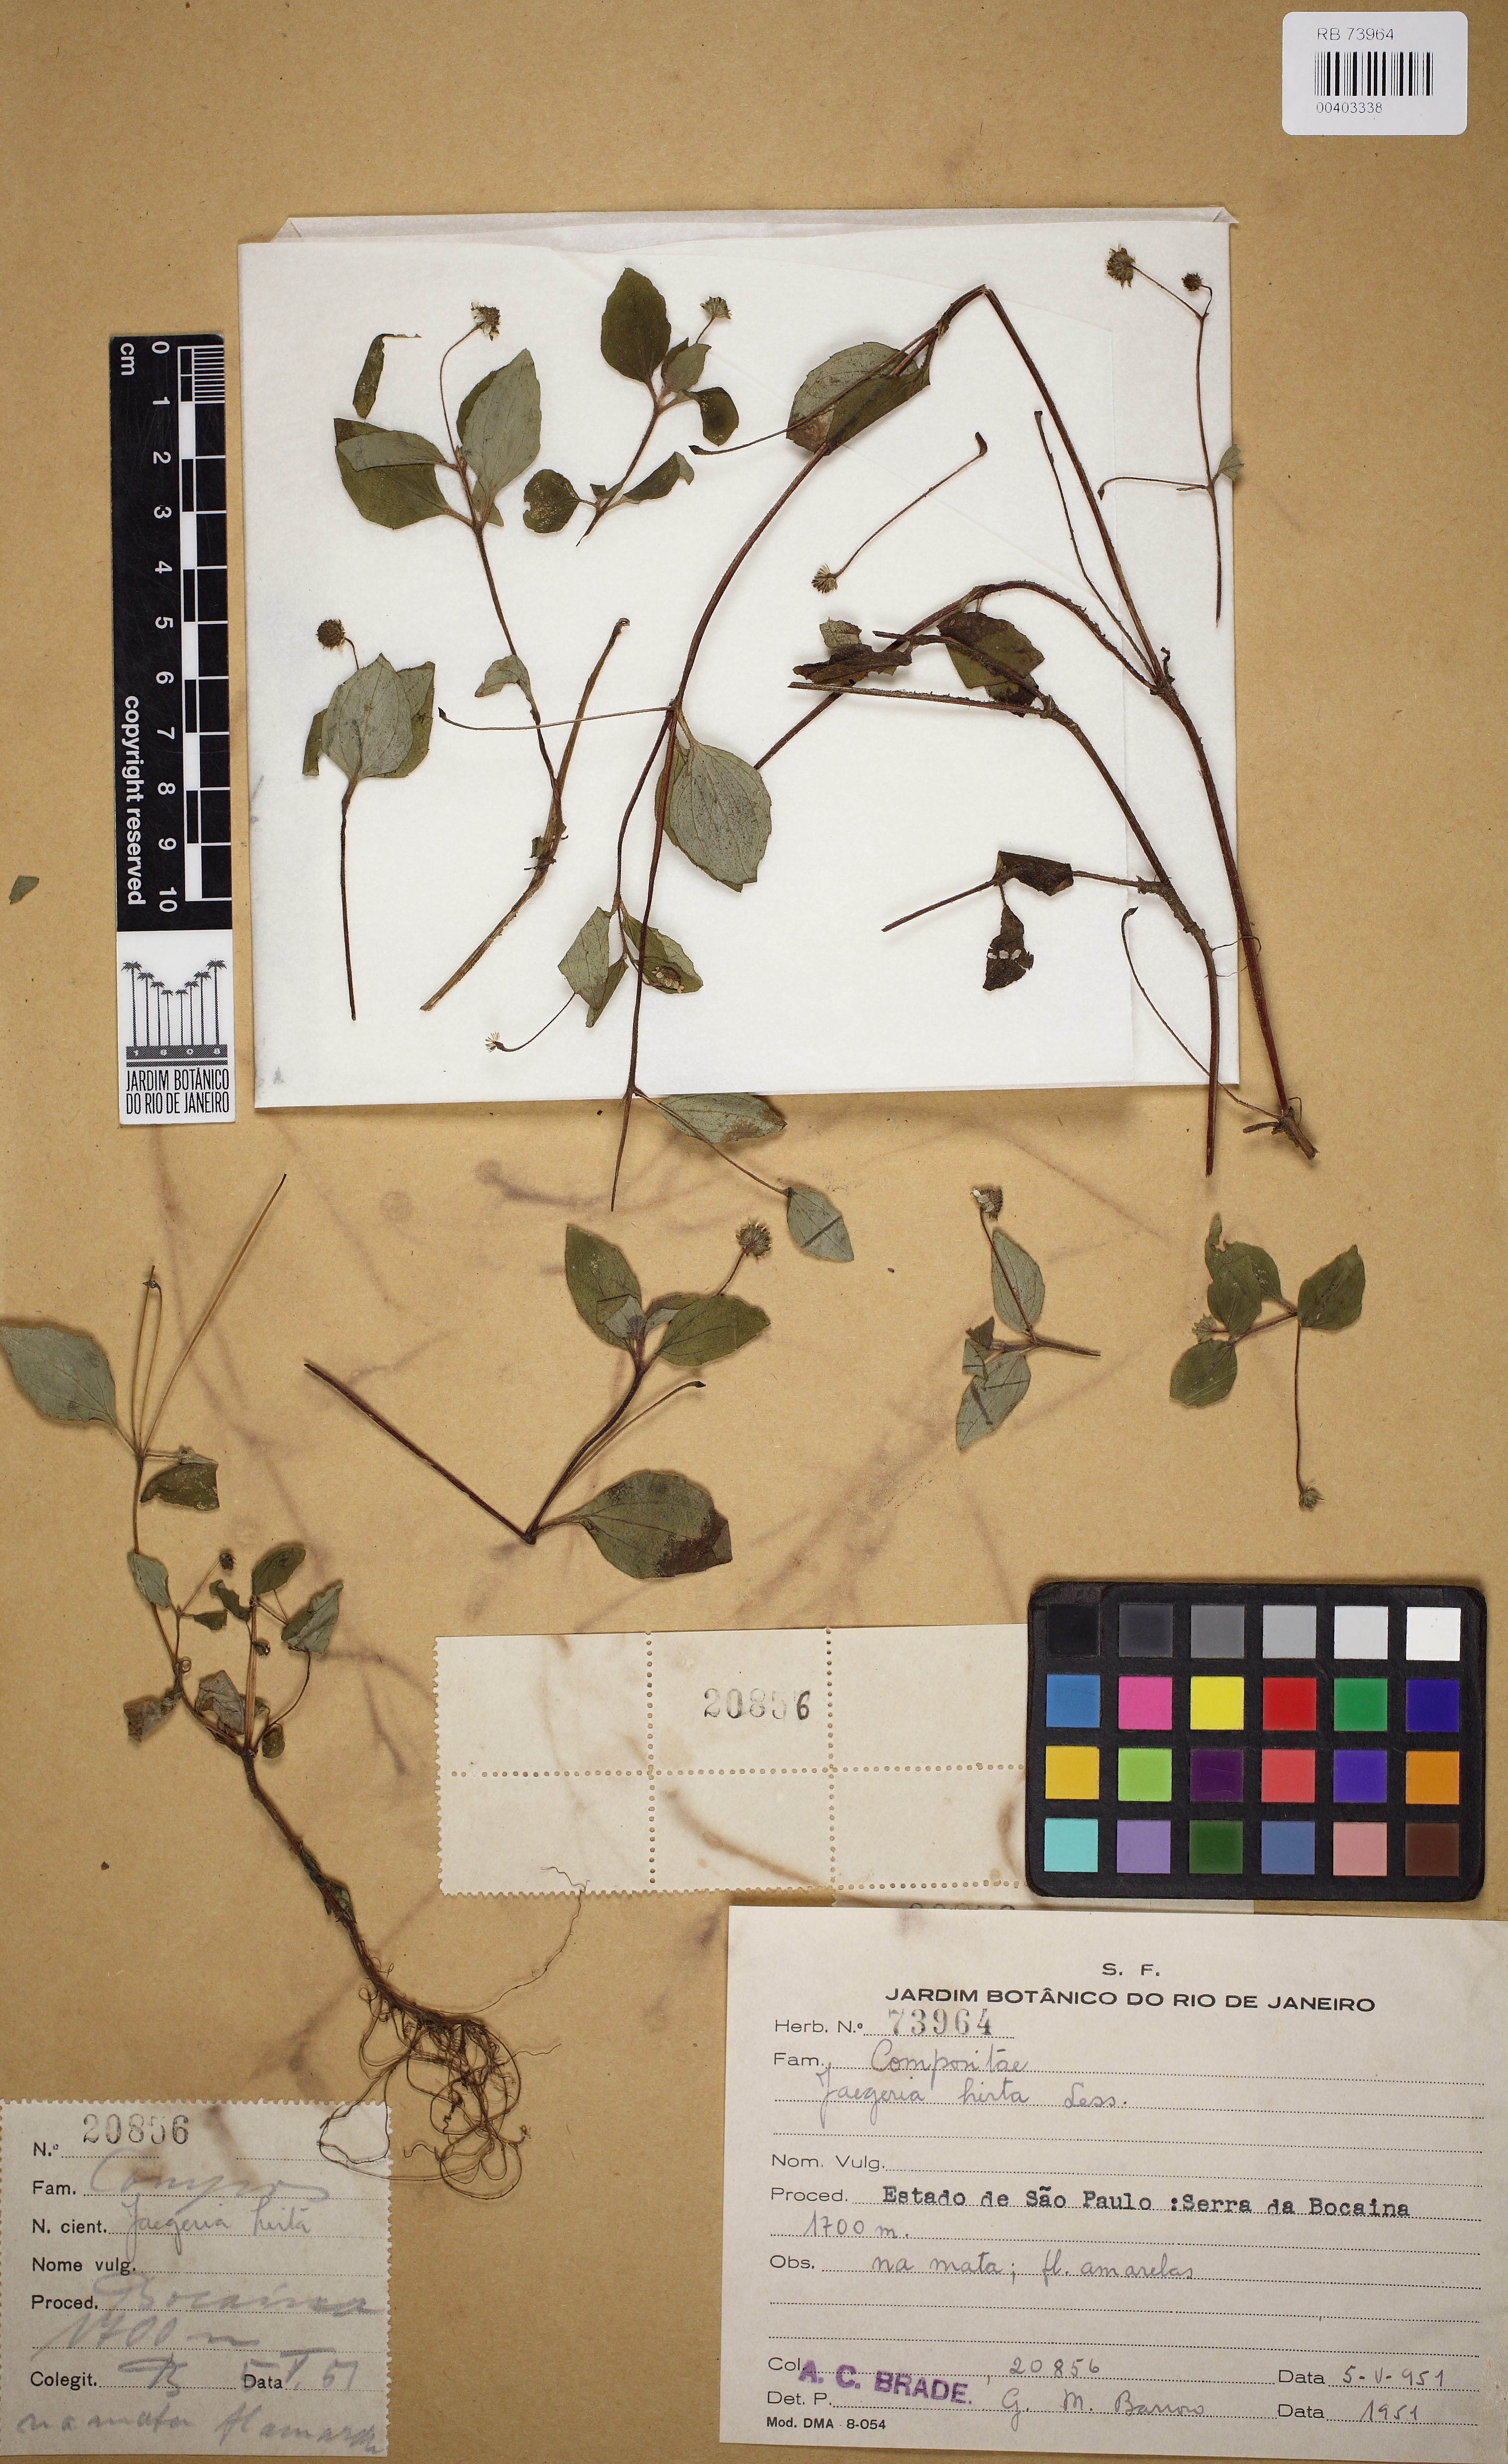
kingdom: Plantae
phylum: Tracheophyta
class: Magnoliopsida
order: Asterales
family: Asteraceae
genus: Jaegeria
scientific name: Jaegeria hirta
